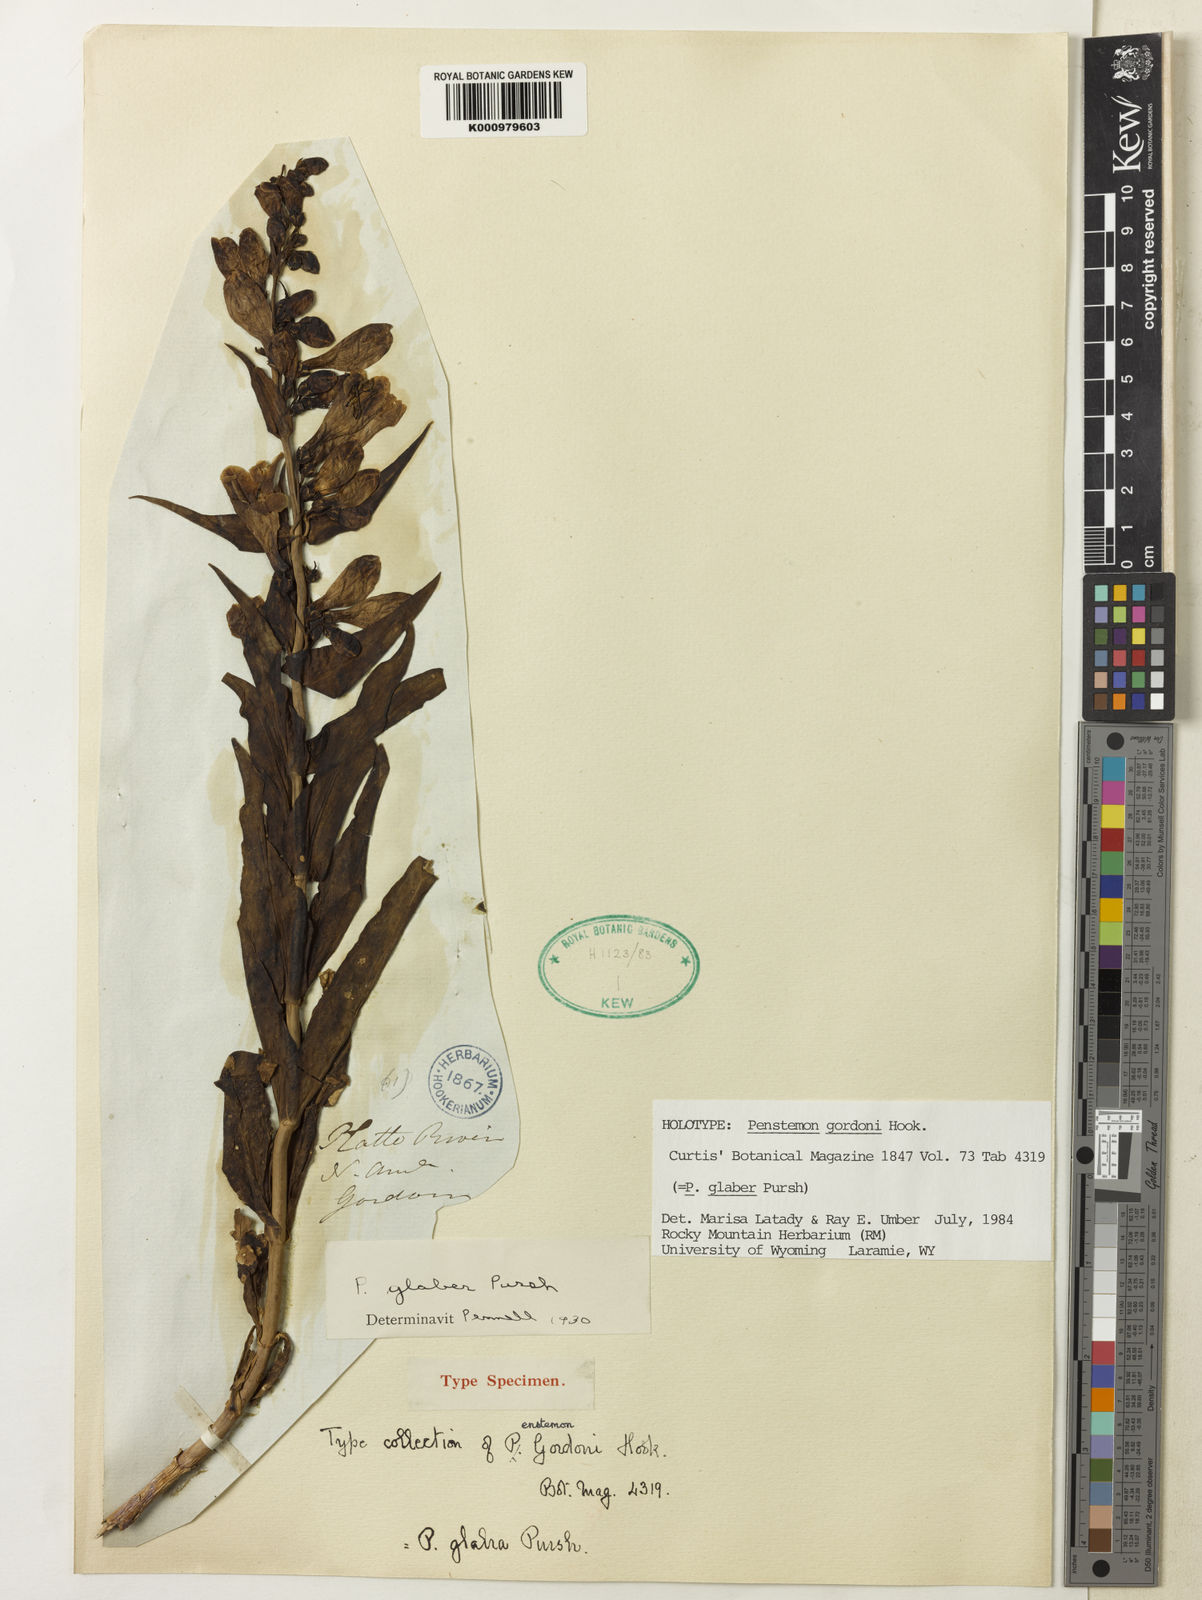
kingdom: Plantae
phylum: Tracheophyta
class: Magnoliopsida
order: Lamiales
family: Plantaginaceae
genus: Penstemon
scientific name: Penstemon glaber
